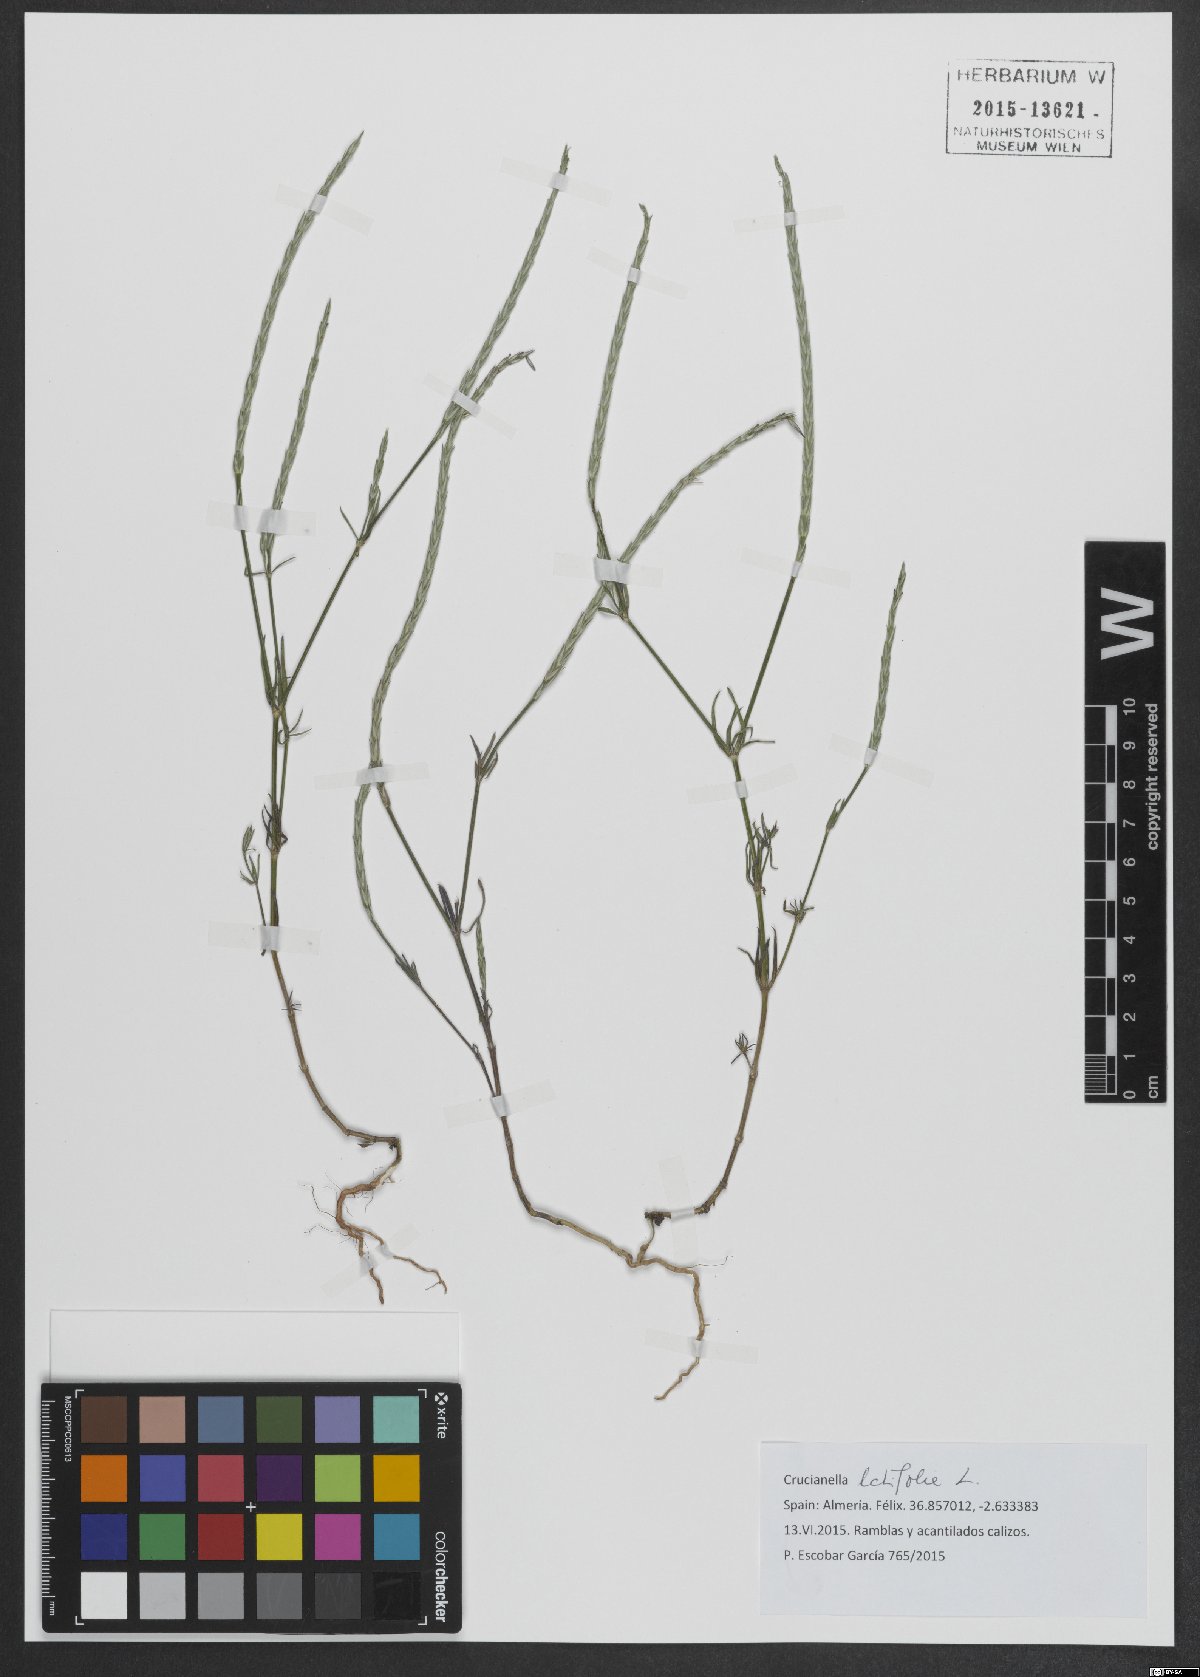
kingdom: Plantae
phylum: Tracheophyta
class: Magnoliopsida
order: Gentianales
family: Rubiaceae
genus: Crucianella
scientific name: Crucianella latifolia
